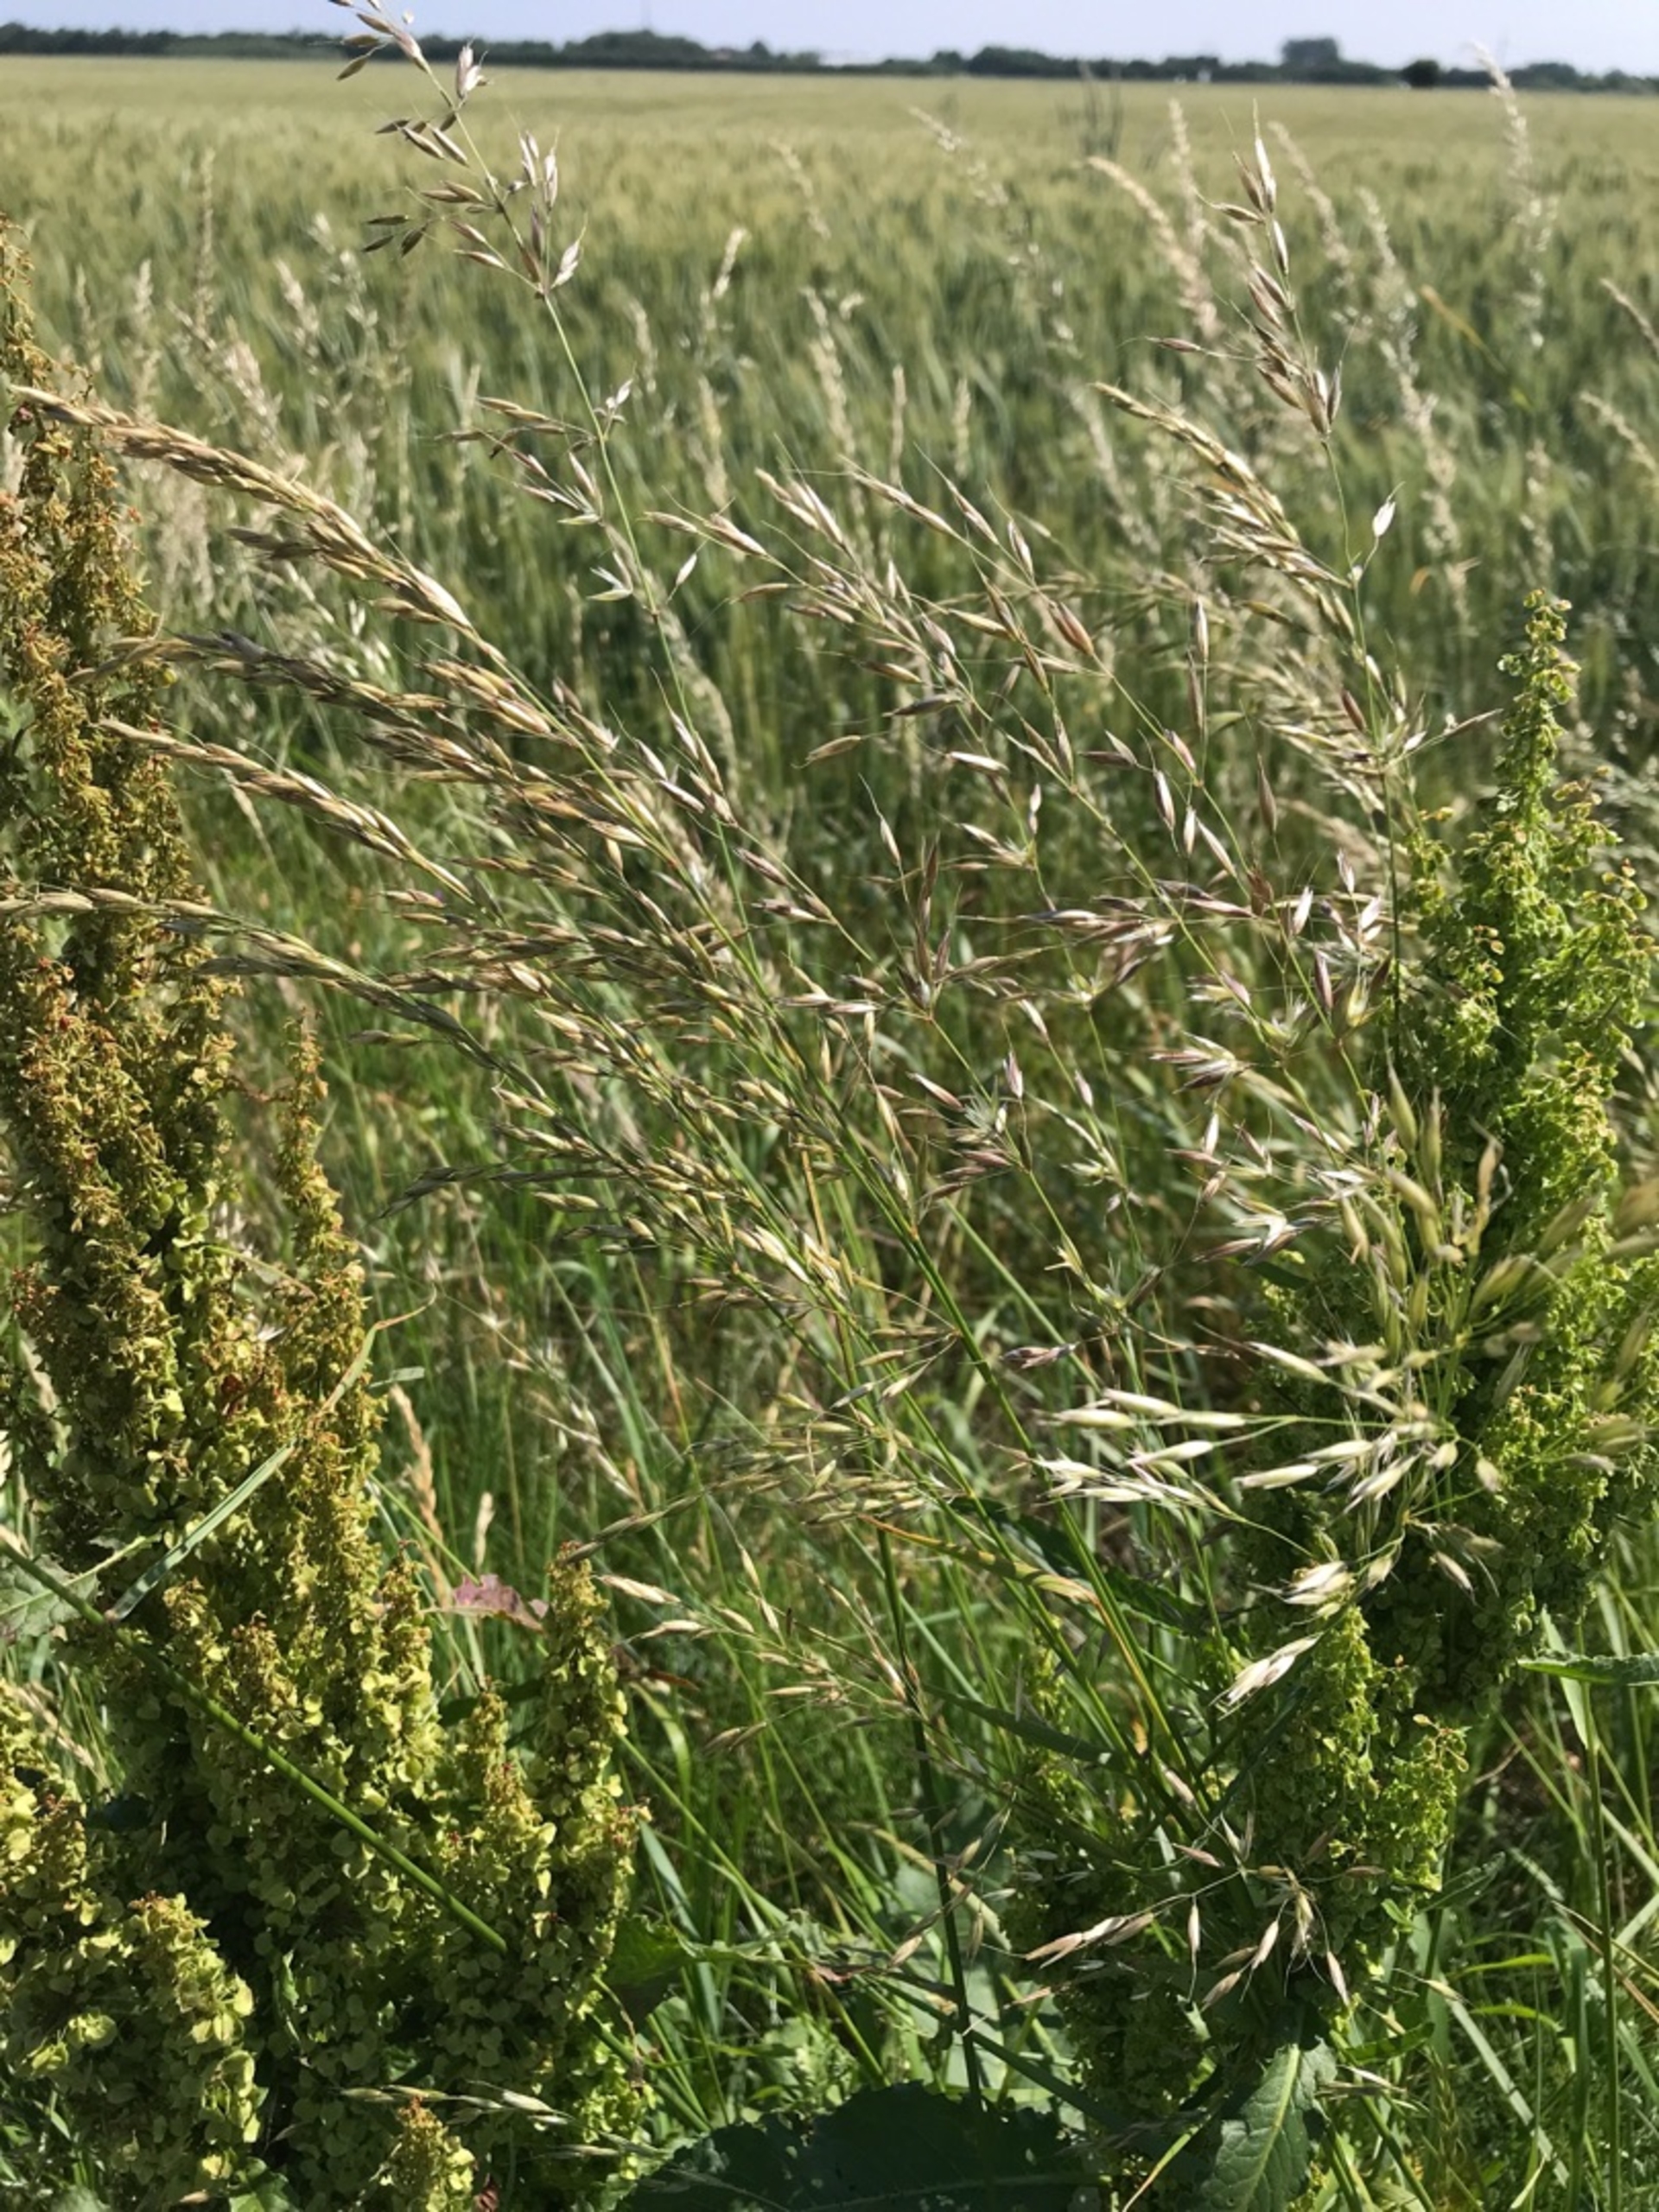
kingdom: Plantae
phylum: Tracheophyta
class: Liliopsida
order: Poales
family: Poaceae
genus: Arrhenatherum
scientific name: Arrhenatherum elatius
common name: Draphavre
